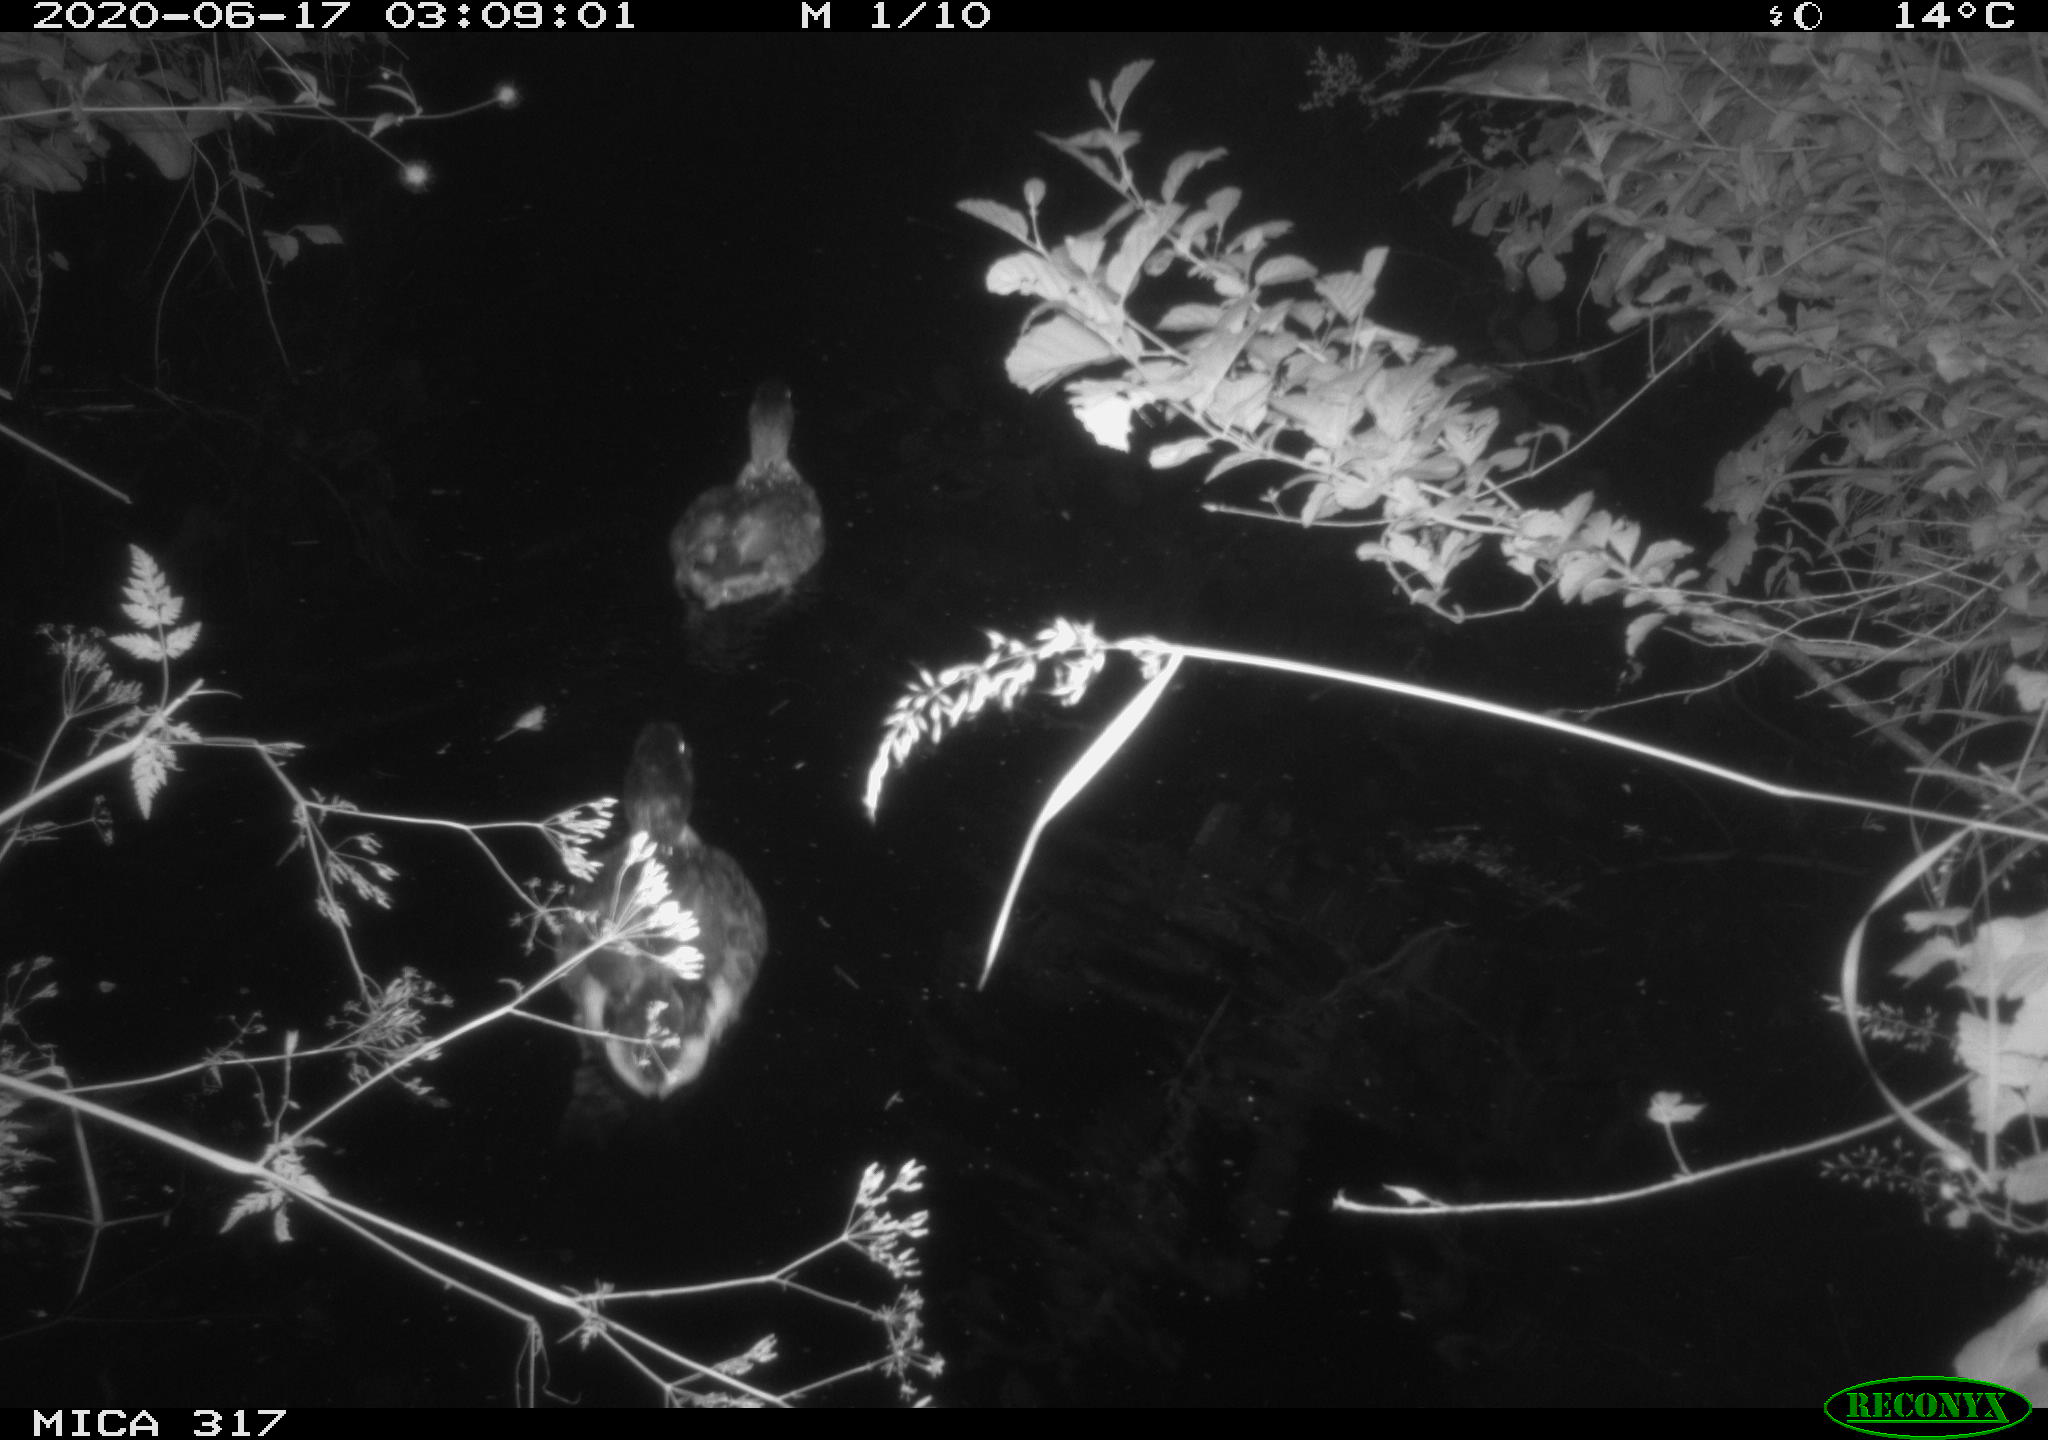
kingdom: Animalia
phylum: Chordata
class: Aves
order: Anseriformes
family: Anatidae
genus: Anas
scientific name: Anas platyrhynchos
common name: Mallard
